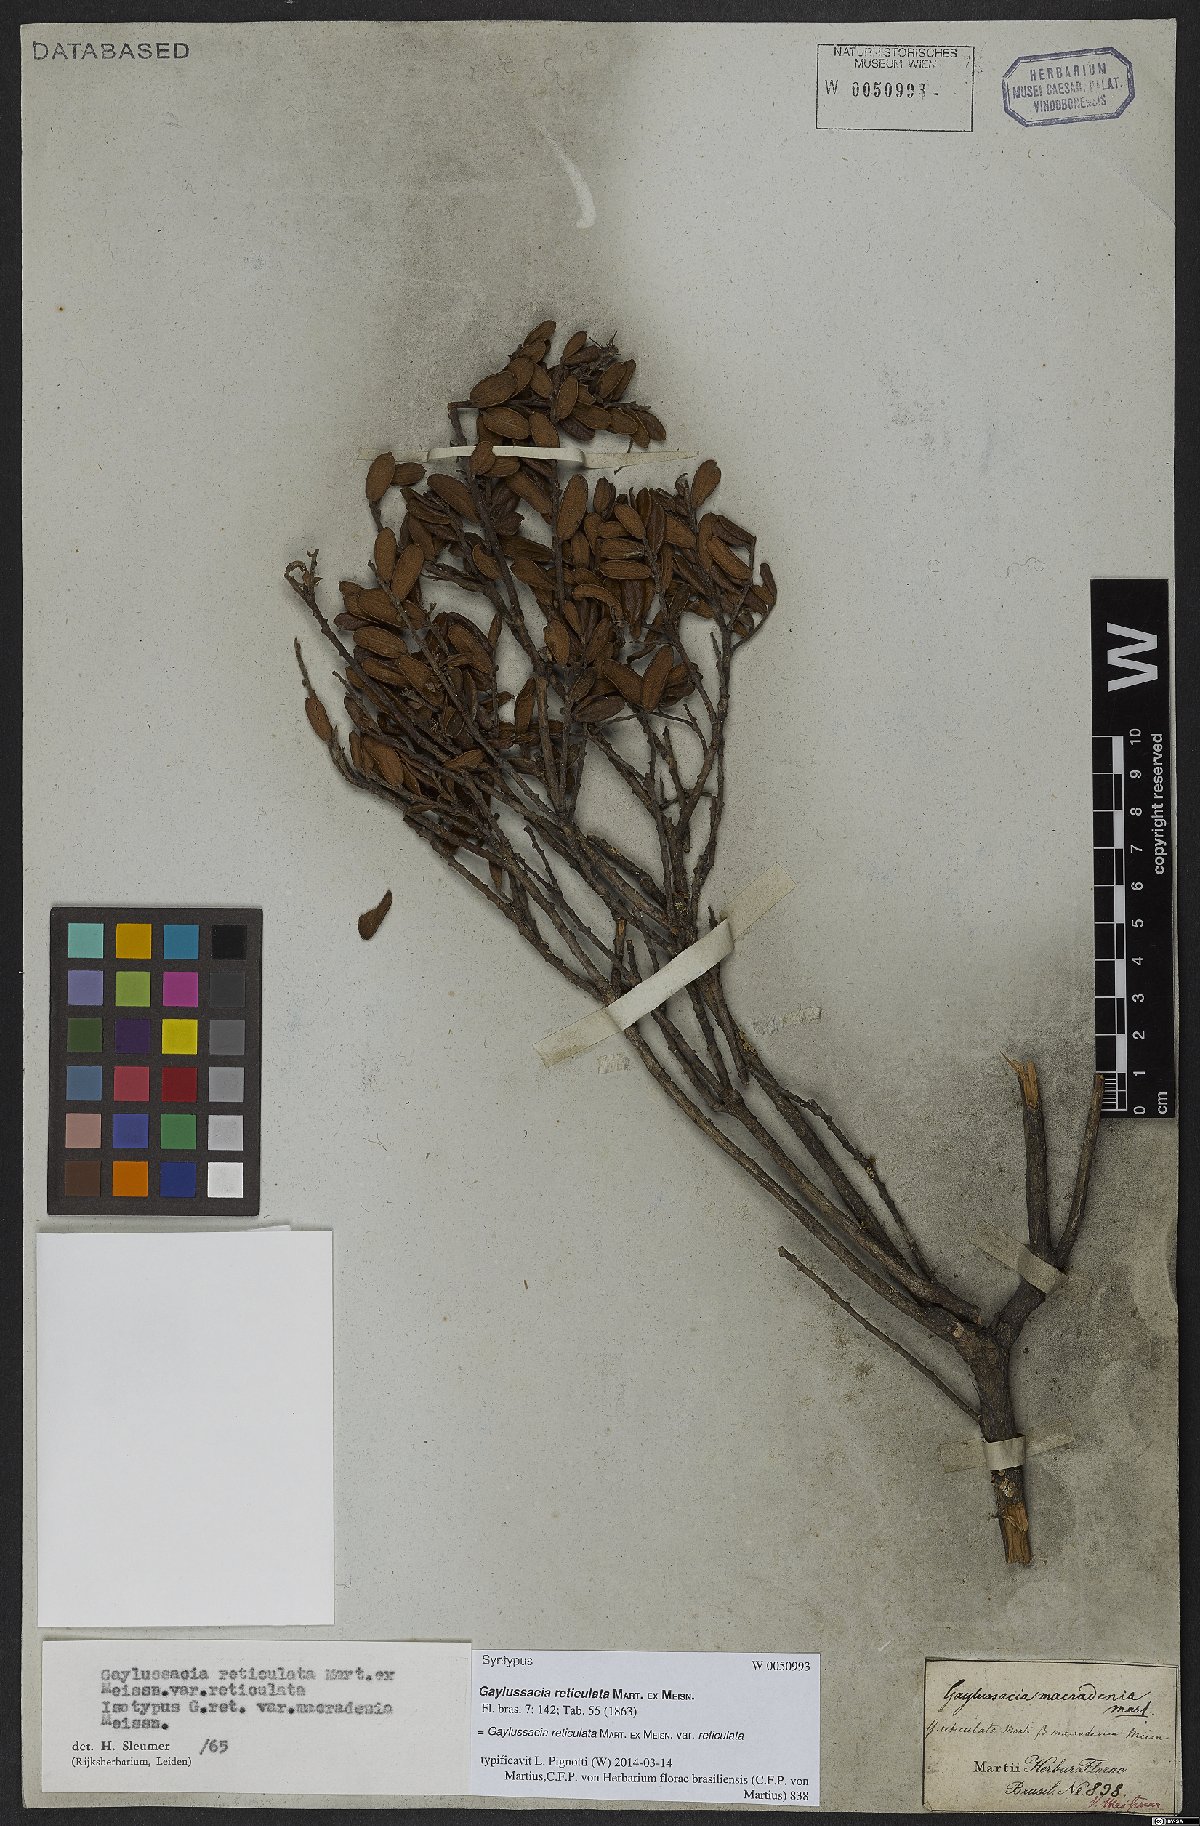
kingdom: Plantae
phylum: Tracheophyta
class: Magnoliopsida
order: Ericales
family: Ericaceae
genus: Gaylussacia
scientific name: Gaylussacia reticulata
